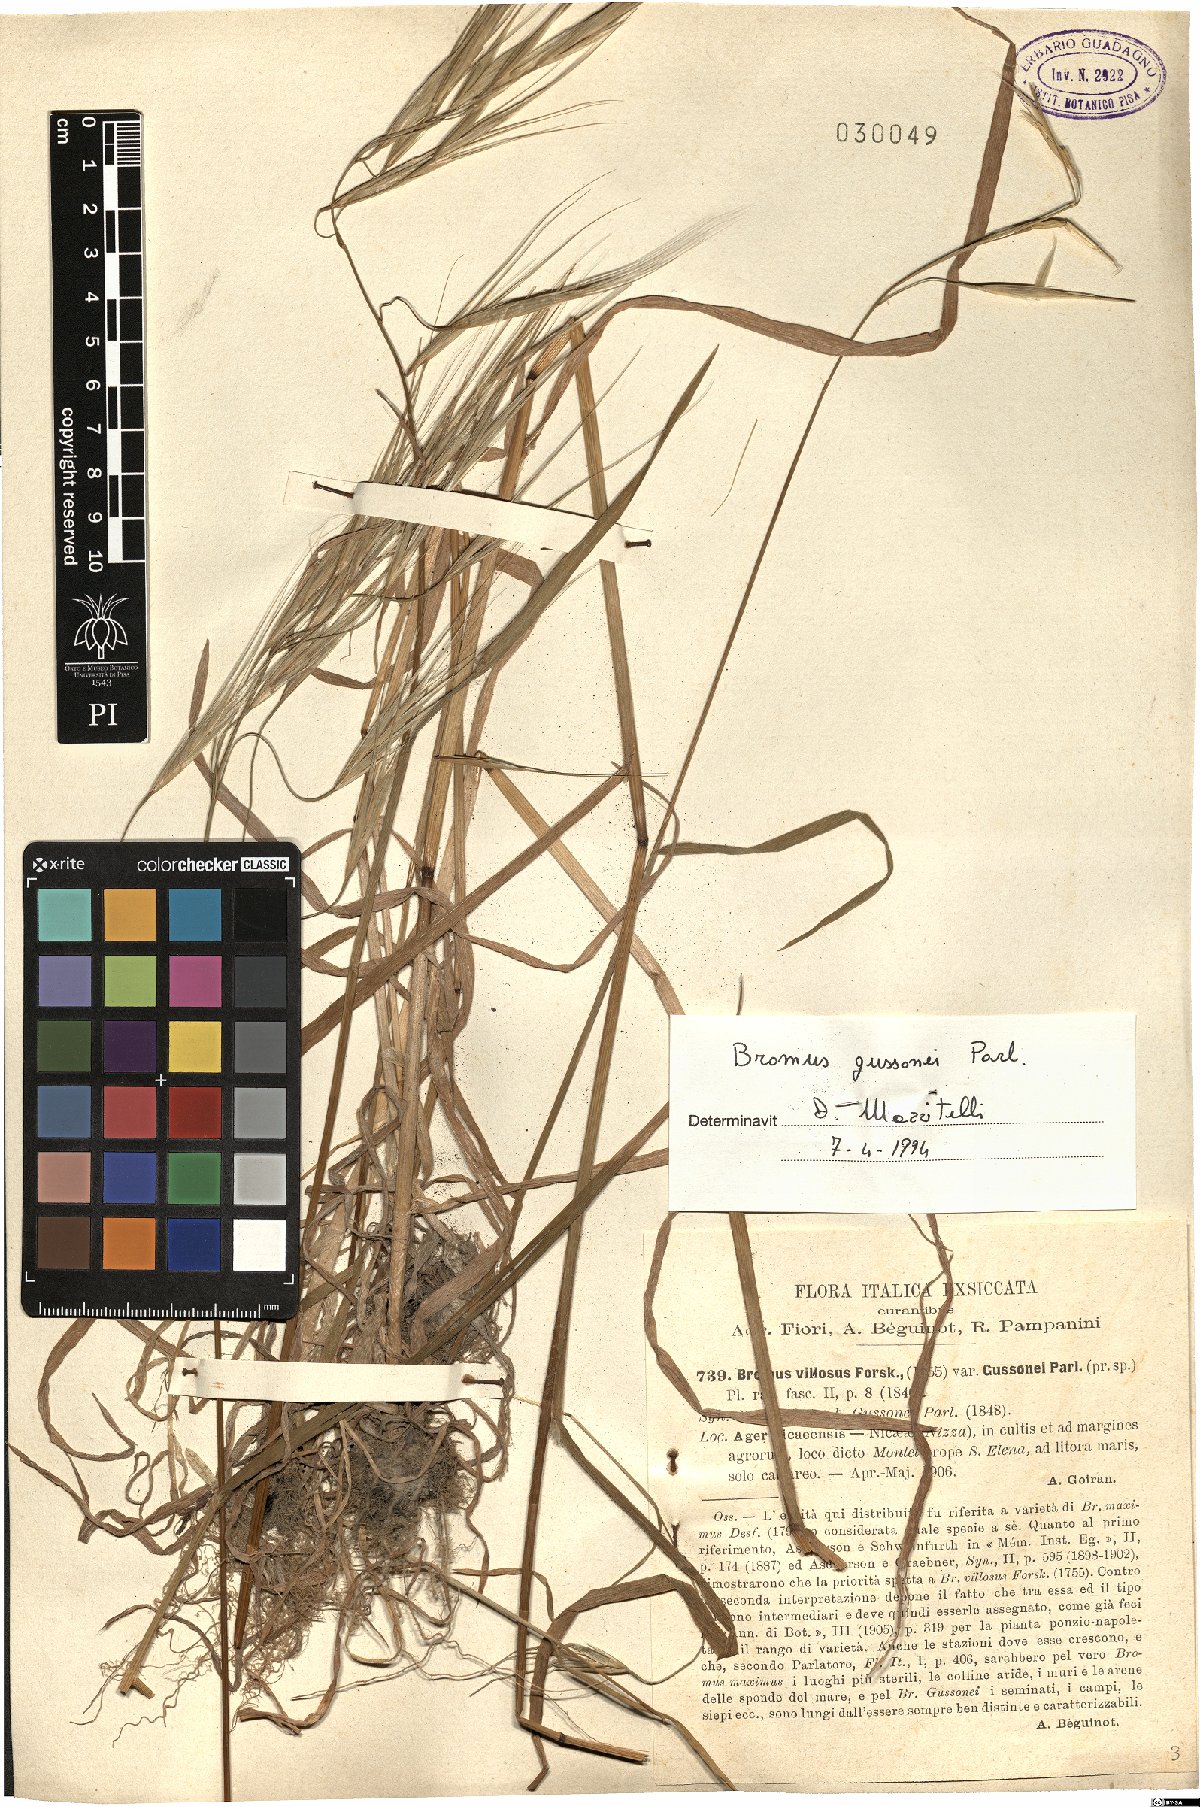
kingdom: Plantae
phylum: Tracheophyta
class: Liliopsida
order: Poales
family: Poaceae
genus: Bromus
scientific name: Bromus diandrus
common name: Ripgut brome
